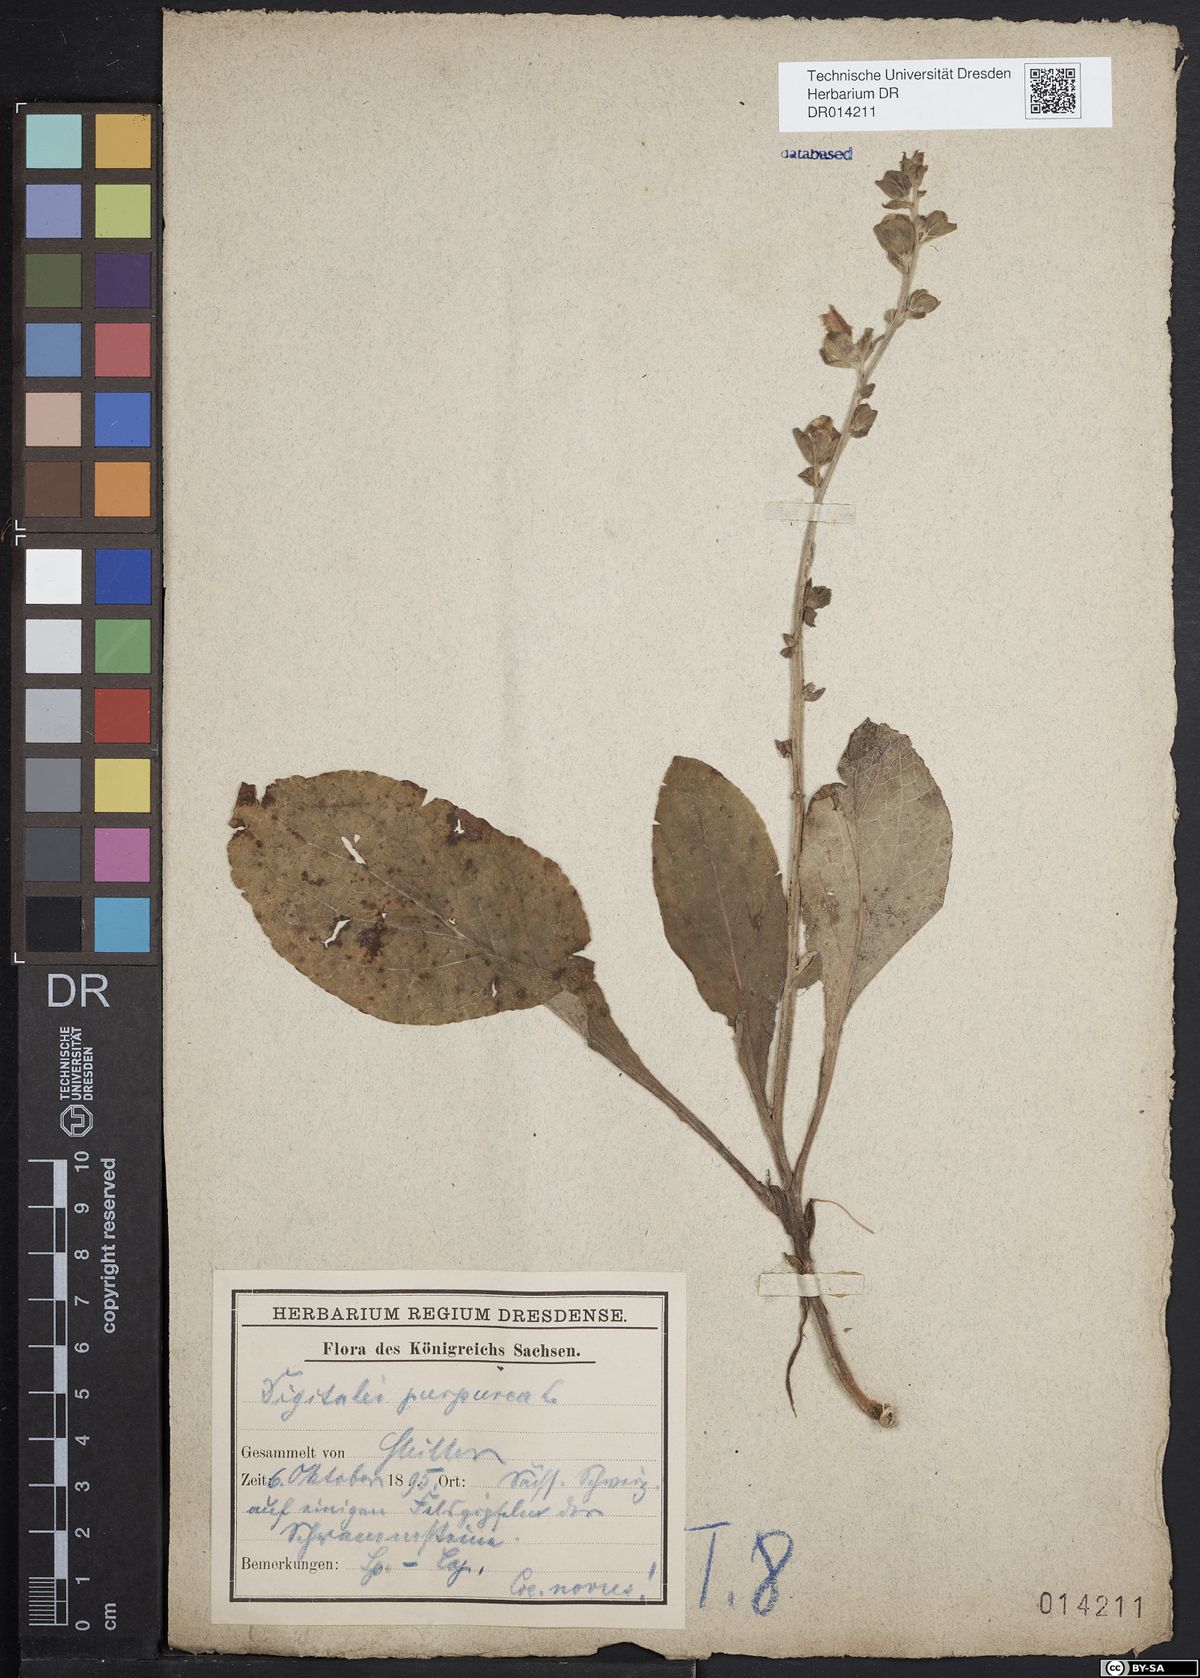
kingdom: Plantae
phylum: Tracheophyta
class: Magnoliopsida
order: Lamiales
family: Plantaginaceae
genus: Digitalis
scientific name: Digitalis purpurea
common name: Foxglove
